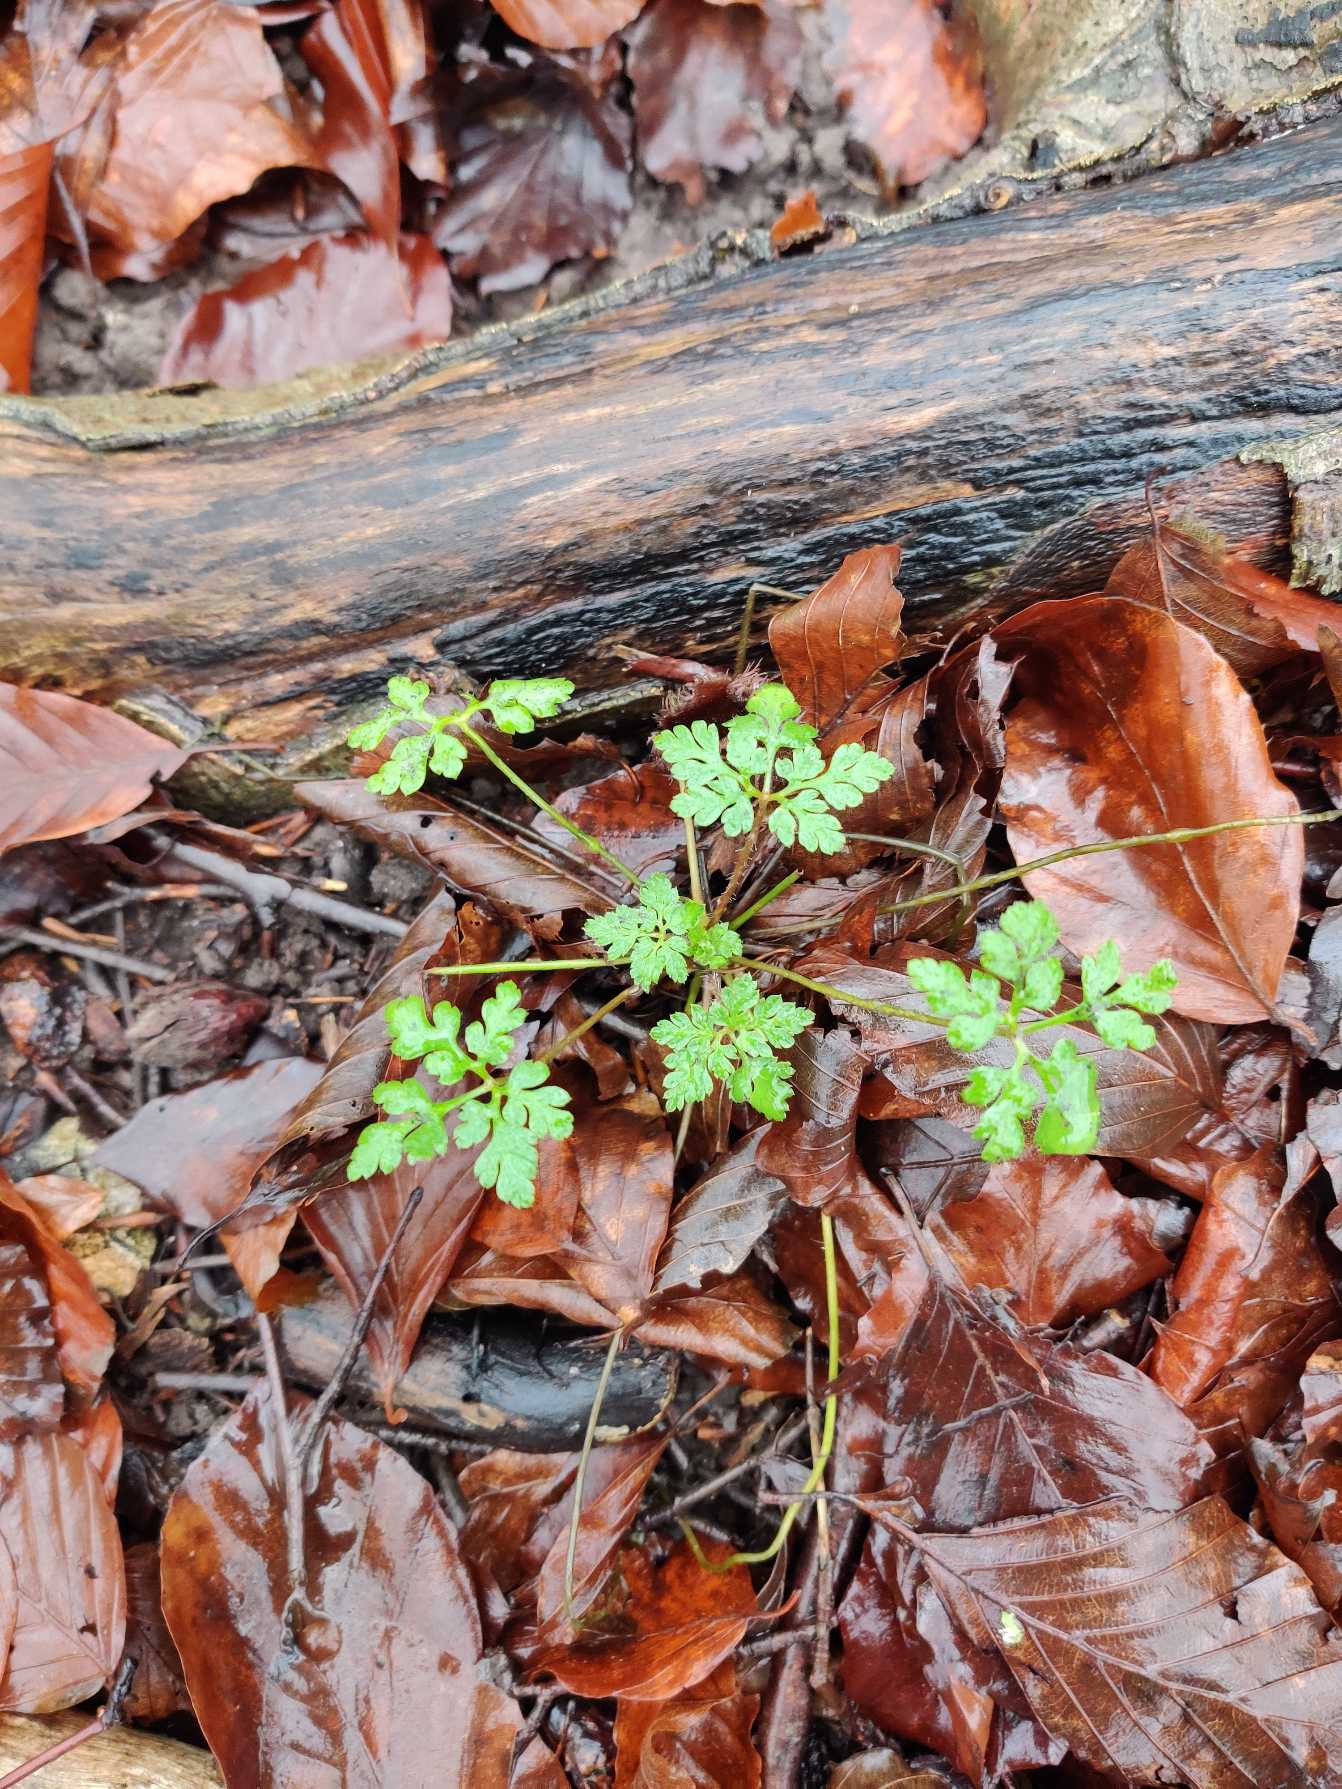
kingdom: Plantae
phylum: Tracheophyta
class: Magnoliopsida
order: Geraniales
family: Geraniaceae
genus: Geranium
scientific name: Geranium robertianum
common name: Stinkende storkenæb
